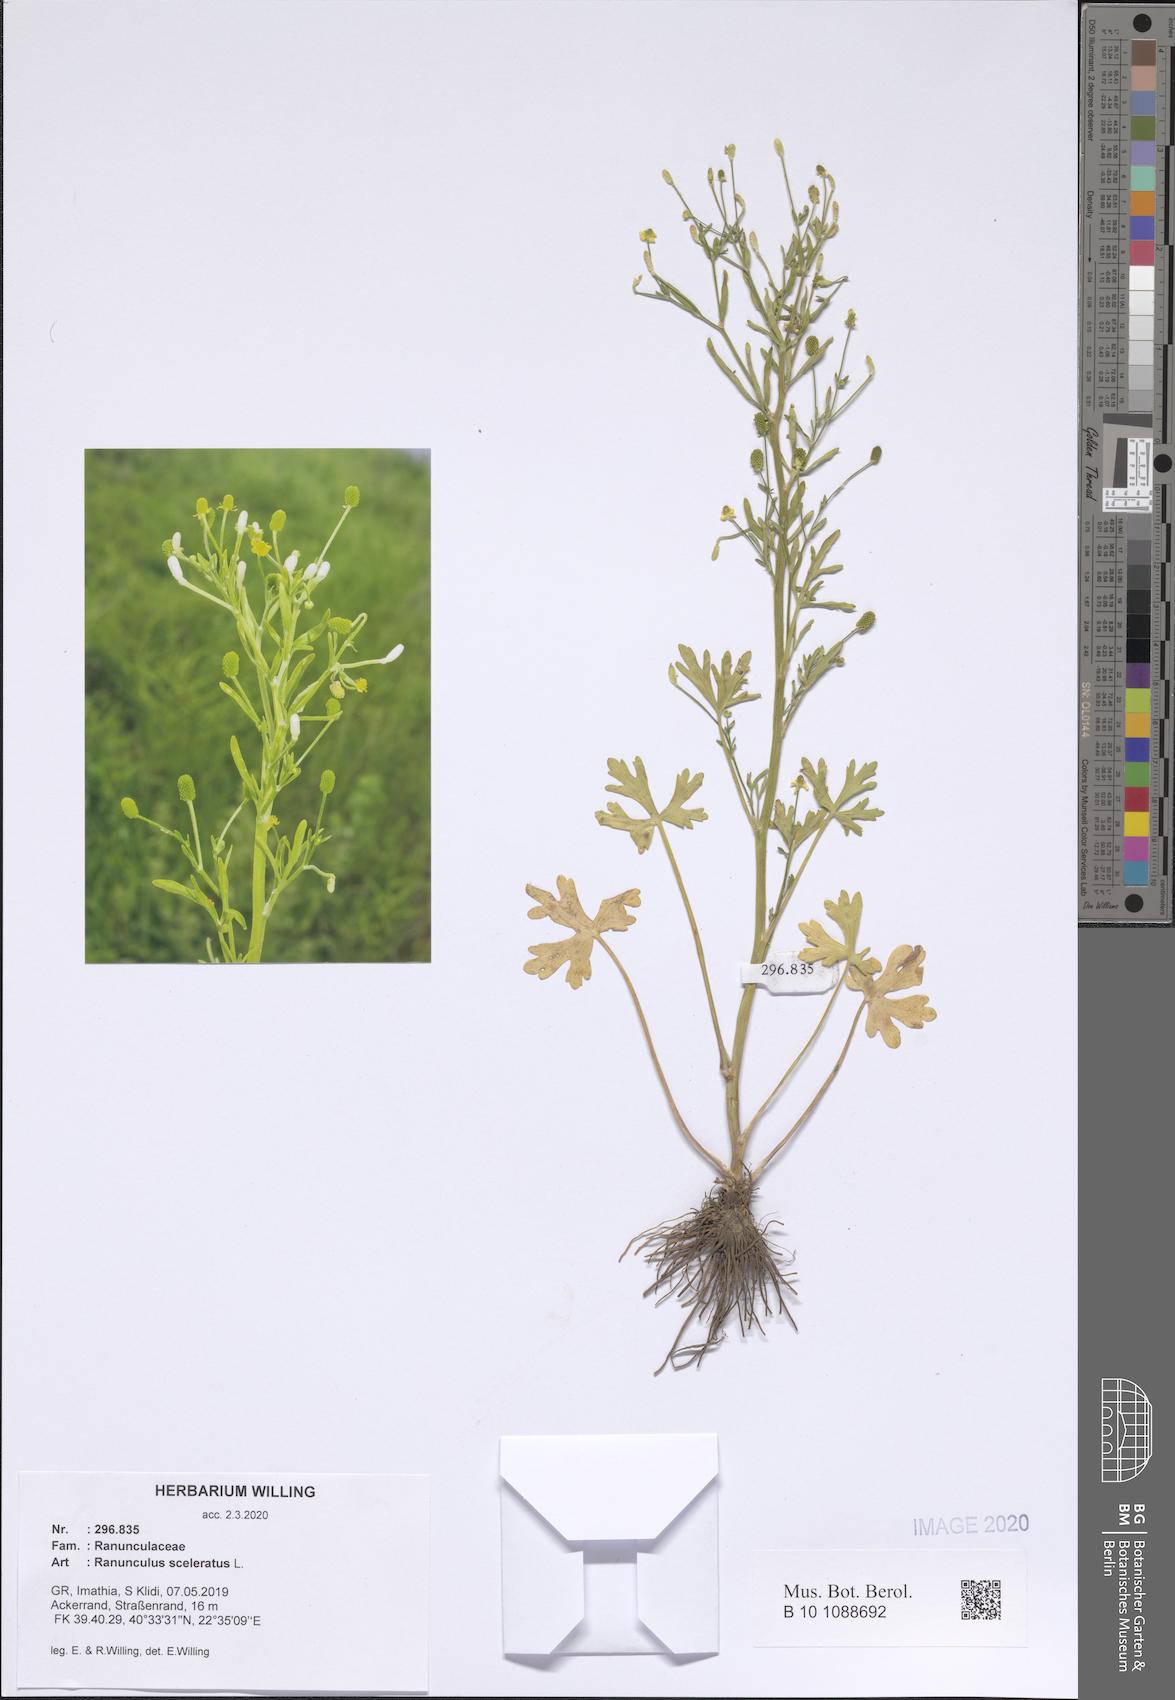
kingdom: Plantae
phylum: Tracheophyta
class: Magnoliopsida
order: Ranunculales
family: Ranunculaceae
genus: Ranunculus
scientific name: Ranunculus sceleratus
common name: Celery-leaved buttercup
